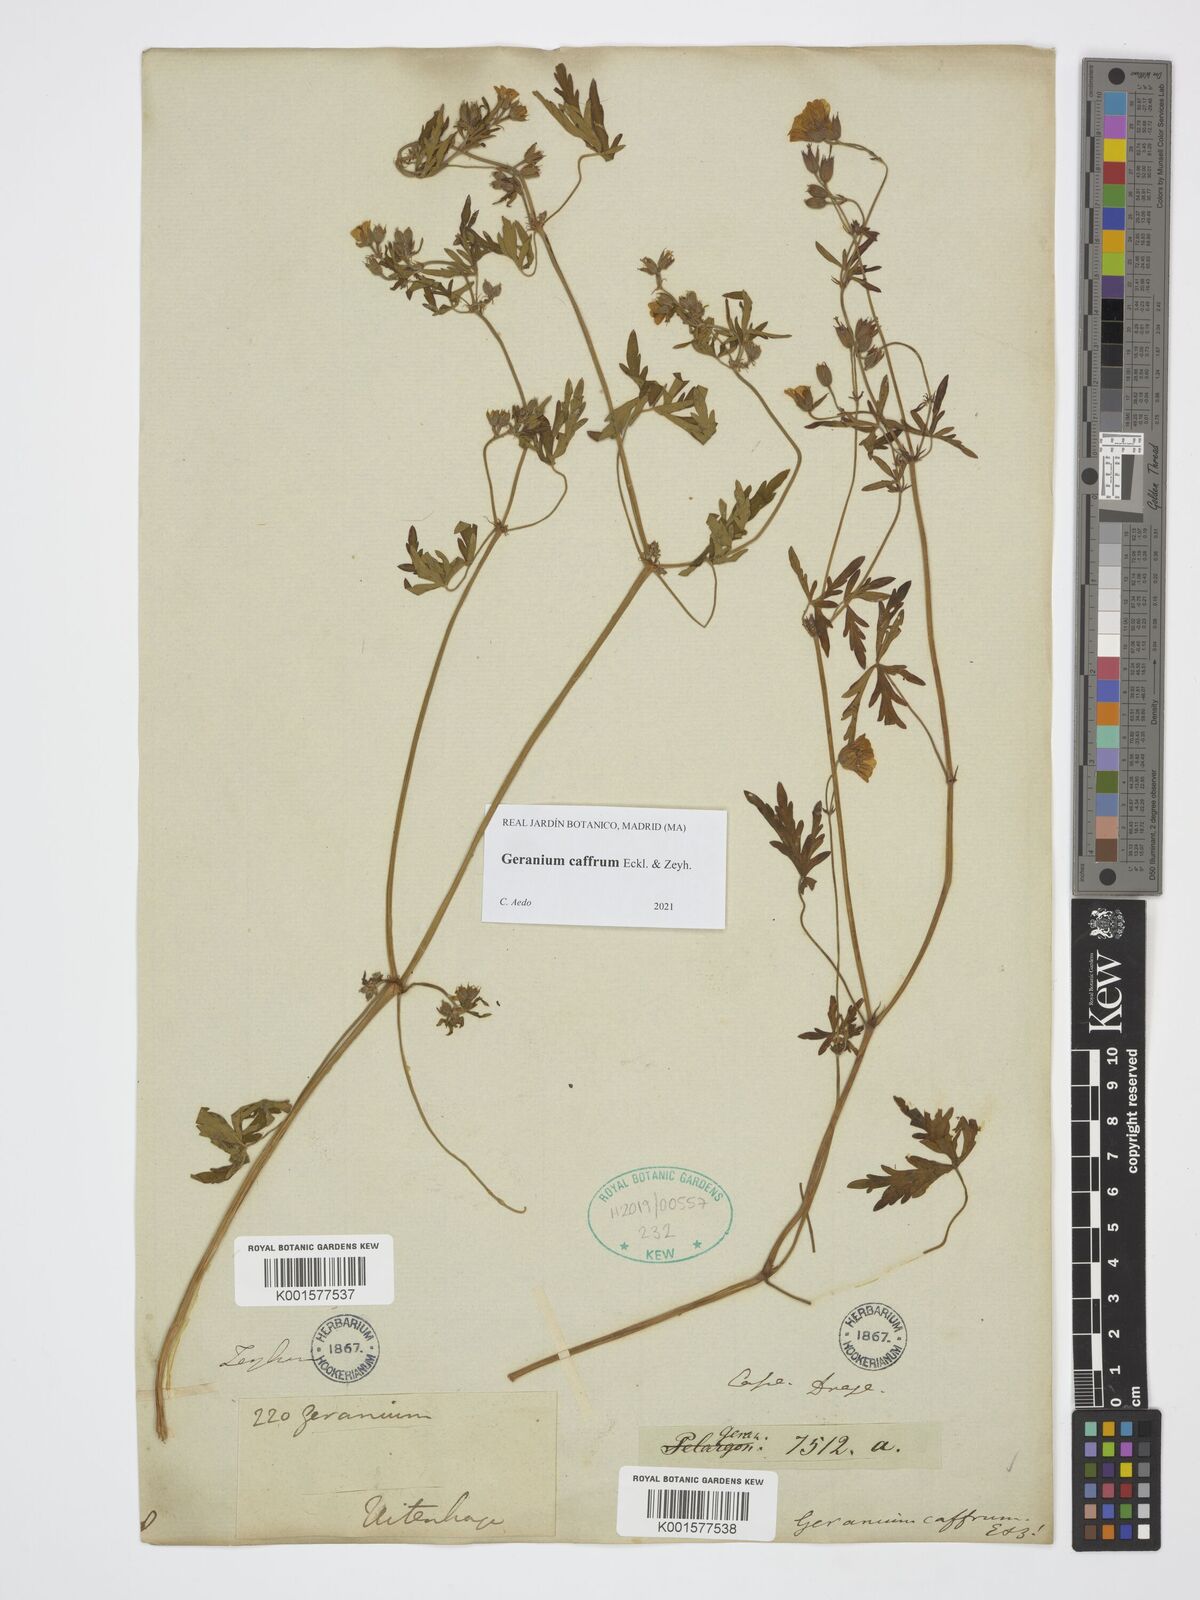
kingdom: Plantae
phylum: Tracheophyta
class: Magnoliopsida
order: Geraniales
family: Geraniaceae
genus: Geranium
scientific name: Geranium caffrum
